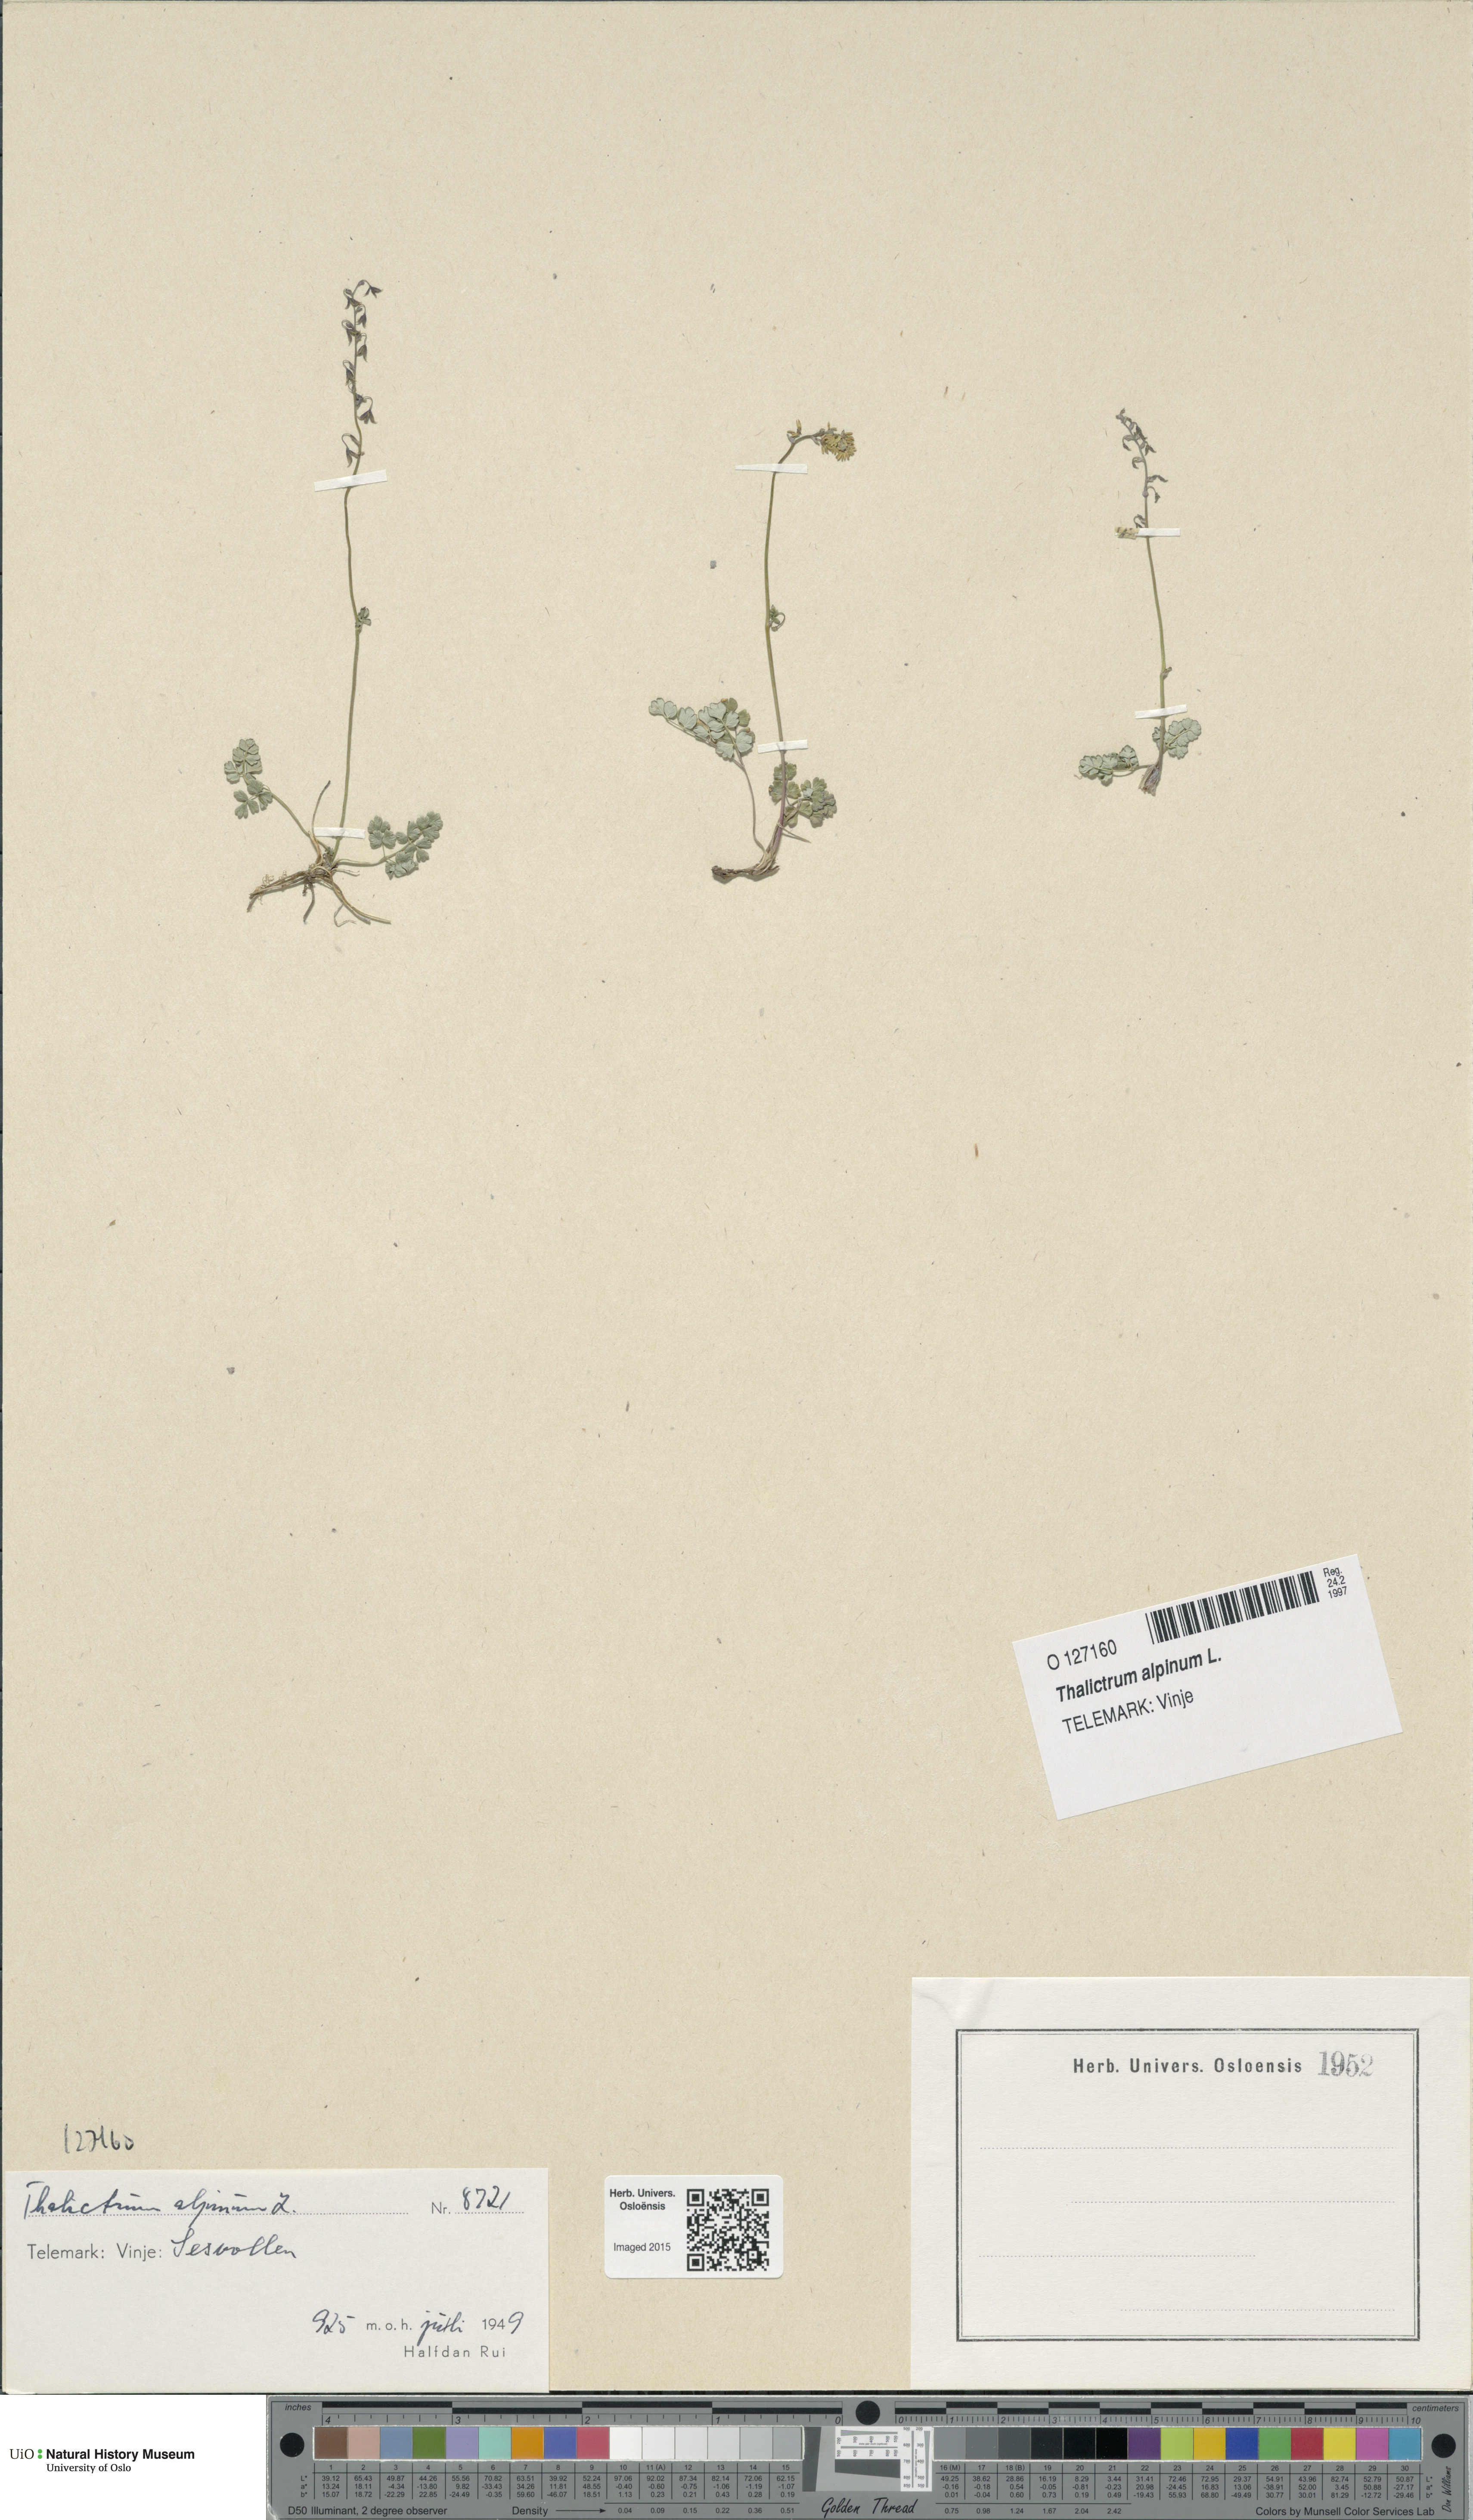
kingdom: Plantae
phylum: Tracheophyta
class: Magnoliopsida
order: Ranunculales
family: Ranunculaceae
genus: Thalictrum
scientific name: Thalictrum alpinum
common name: Alpine meadow-rue
